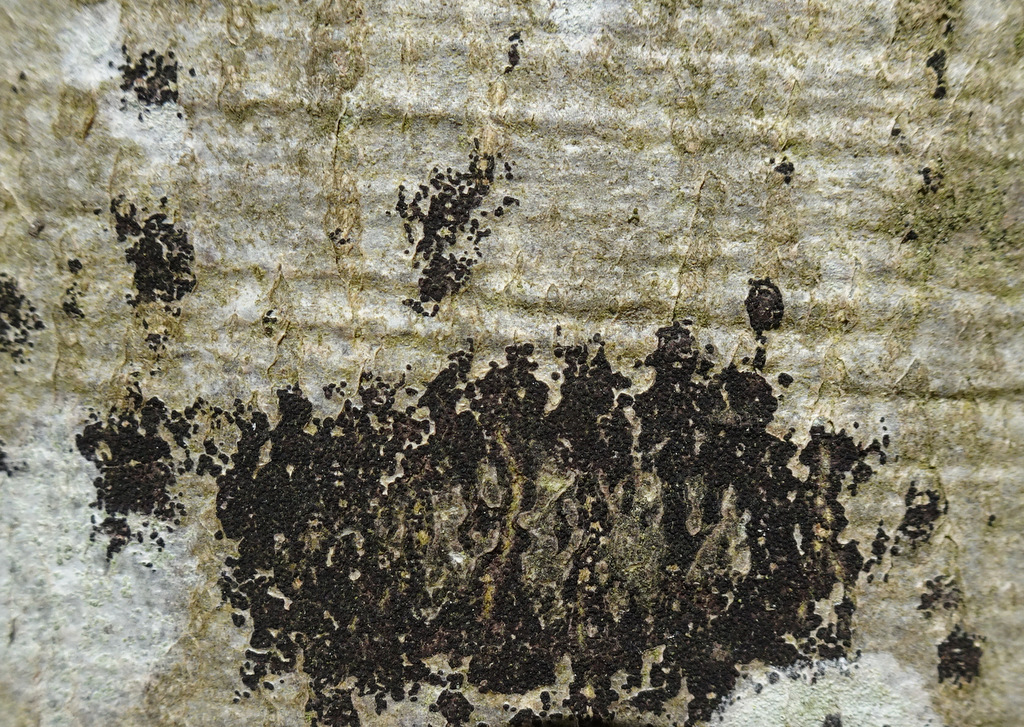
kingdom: Fungi
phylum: Ascomycota
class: Leotiomycetes
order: Rhytismatales
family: Ascodichaenaceae
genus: Ascodichaena
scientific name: Ascodichaena rugosa
